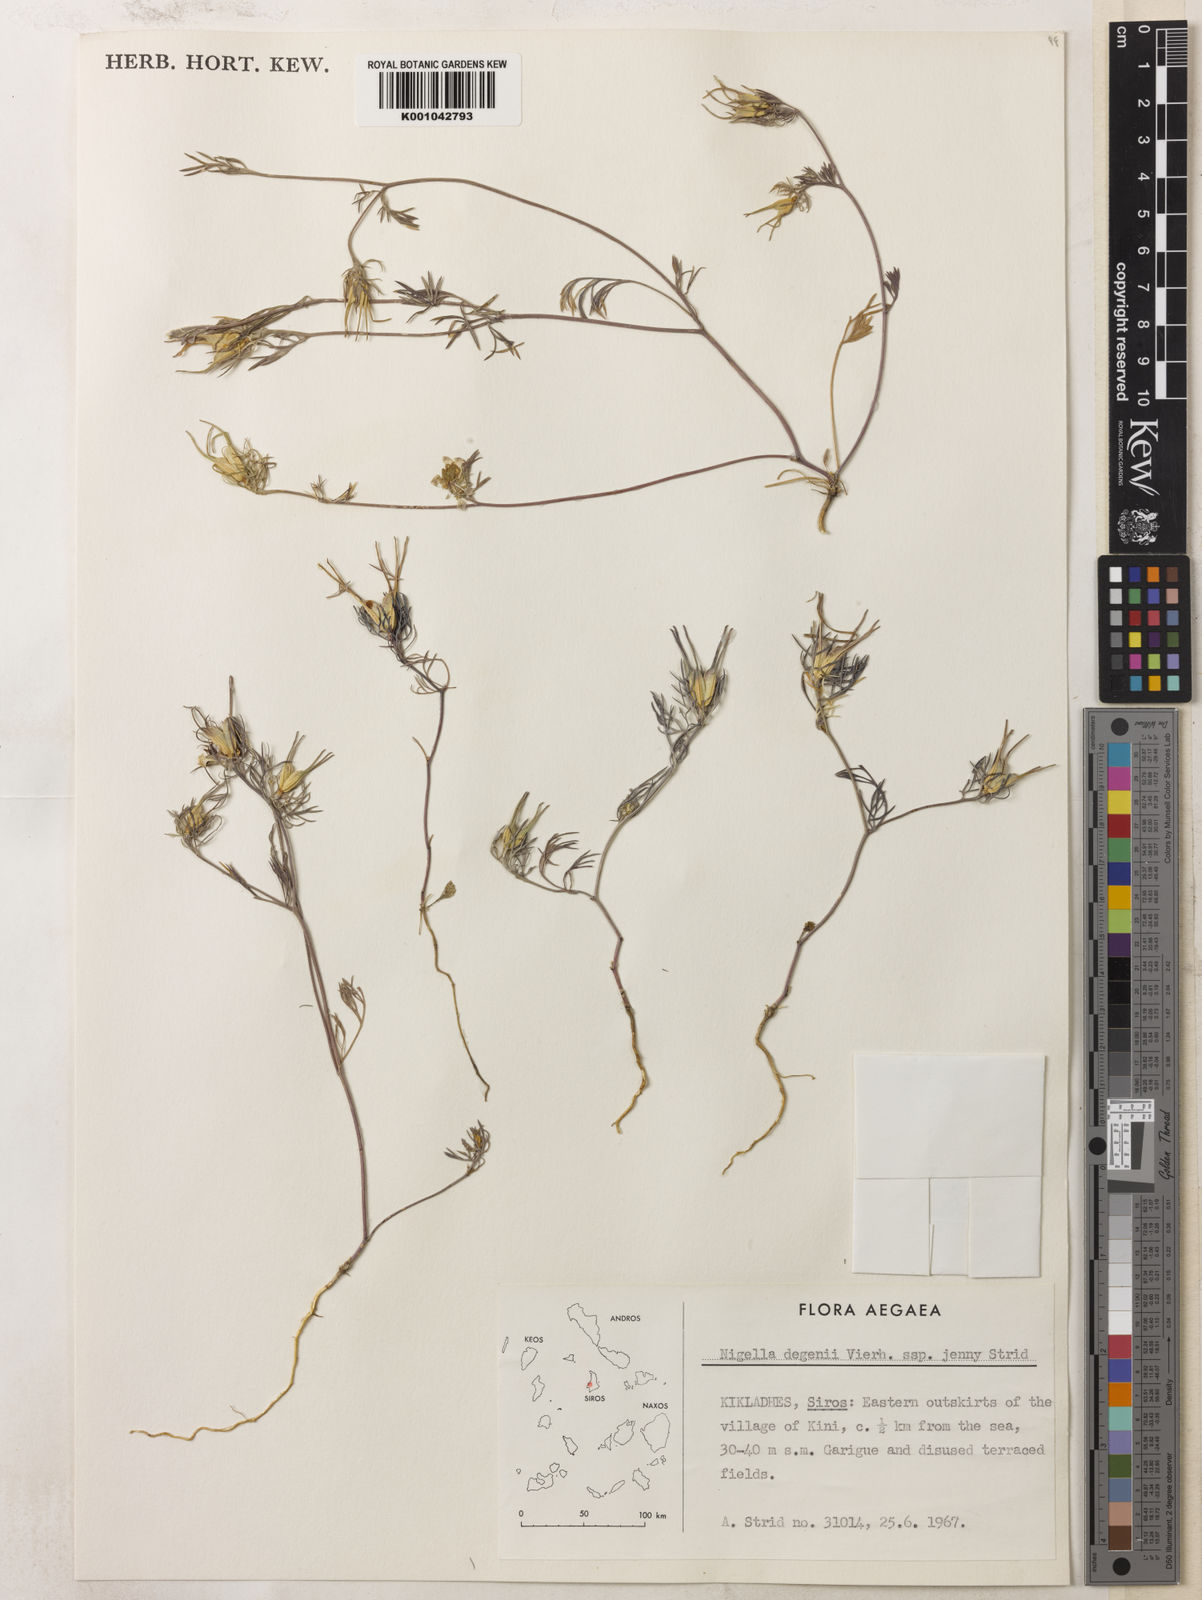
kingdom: Plantae
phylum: Tracheophyta
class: Magnoliopsida
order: Ranunculales
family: Ranunculaceae
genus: Nigella
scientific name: Nigella degenii
